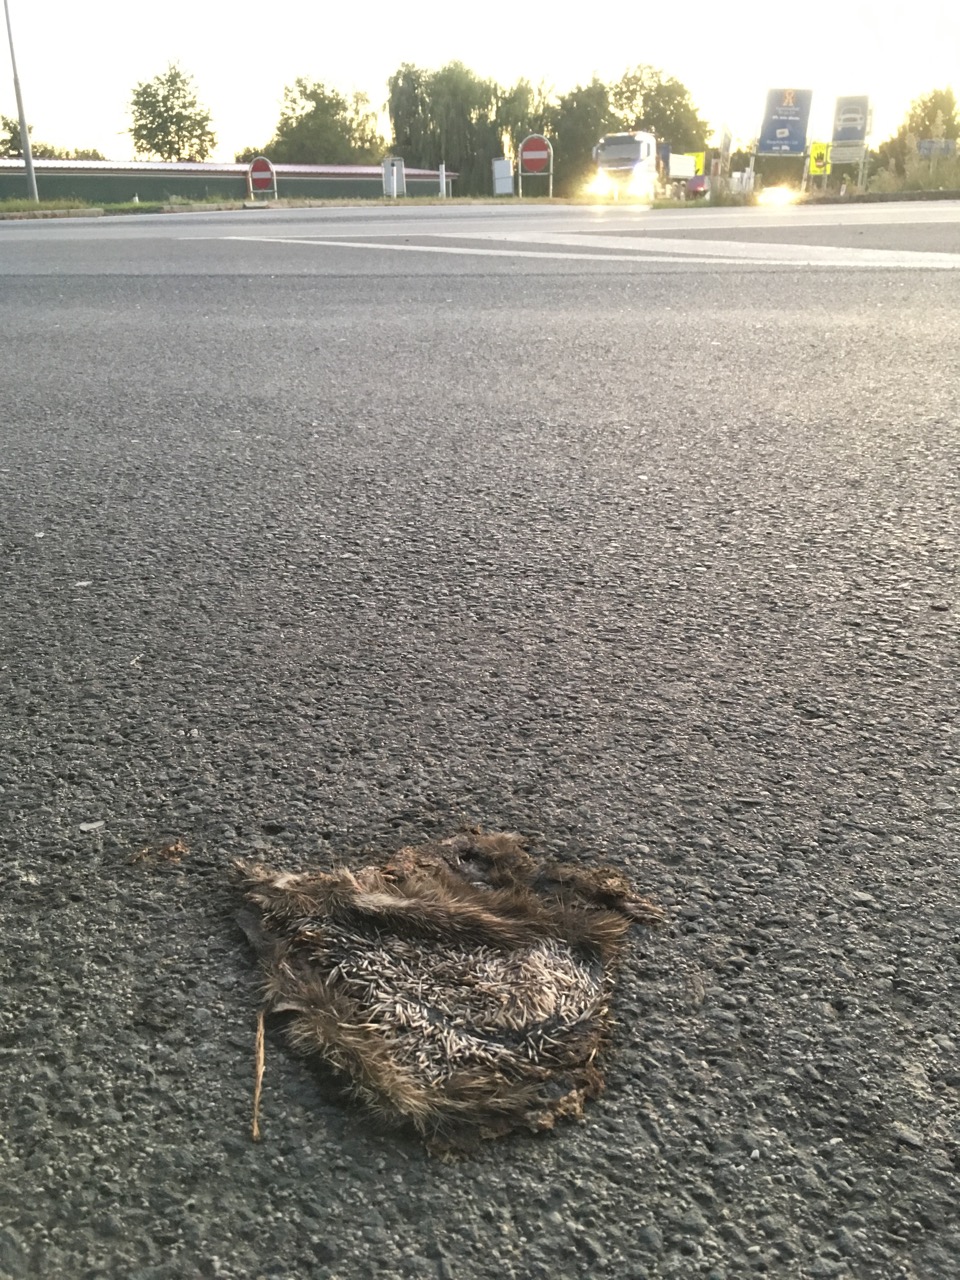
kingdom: Animalia
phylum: Chordata
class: Mammalia
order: Erinaceomorpha
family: Erinaceidae
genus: Erinaceus
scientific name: Erinaceus
